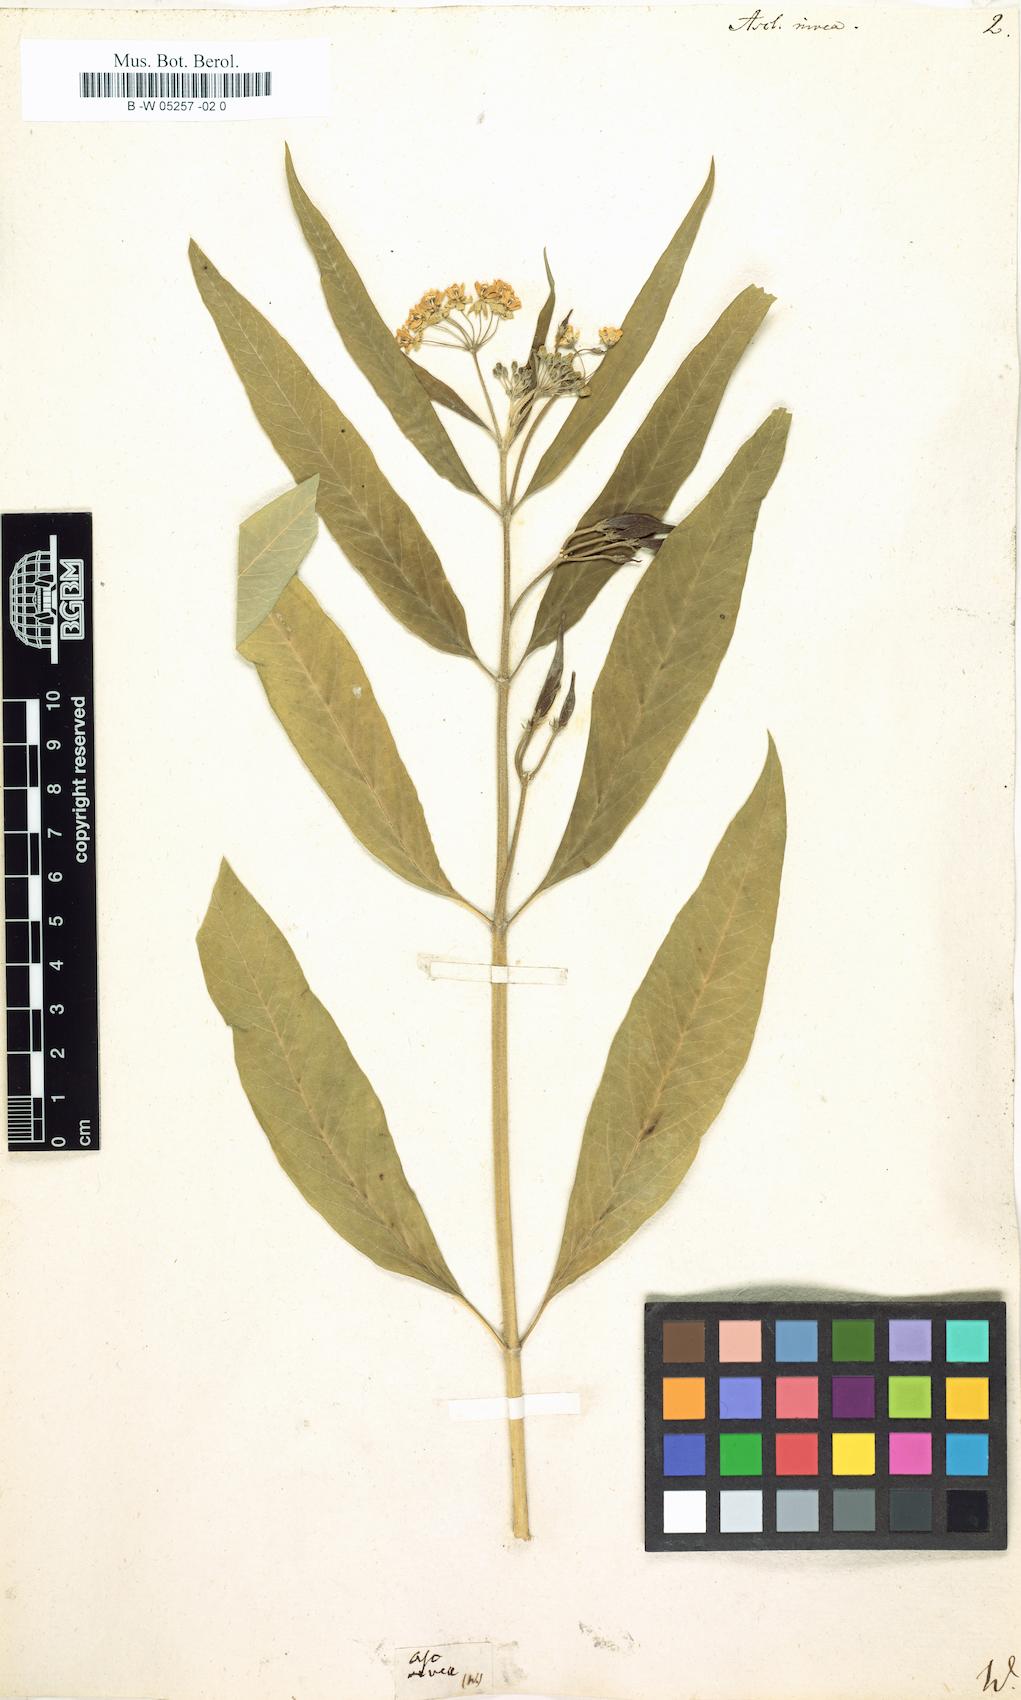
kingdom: Plantae
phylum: Tracheophyta
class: Magnoliopsida
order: Gentianales
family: Apocynaceae
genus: Pentatropis
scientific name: Pentatropis nivalis
